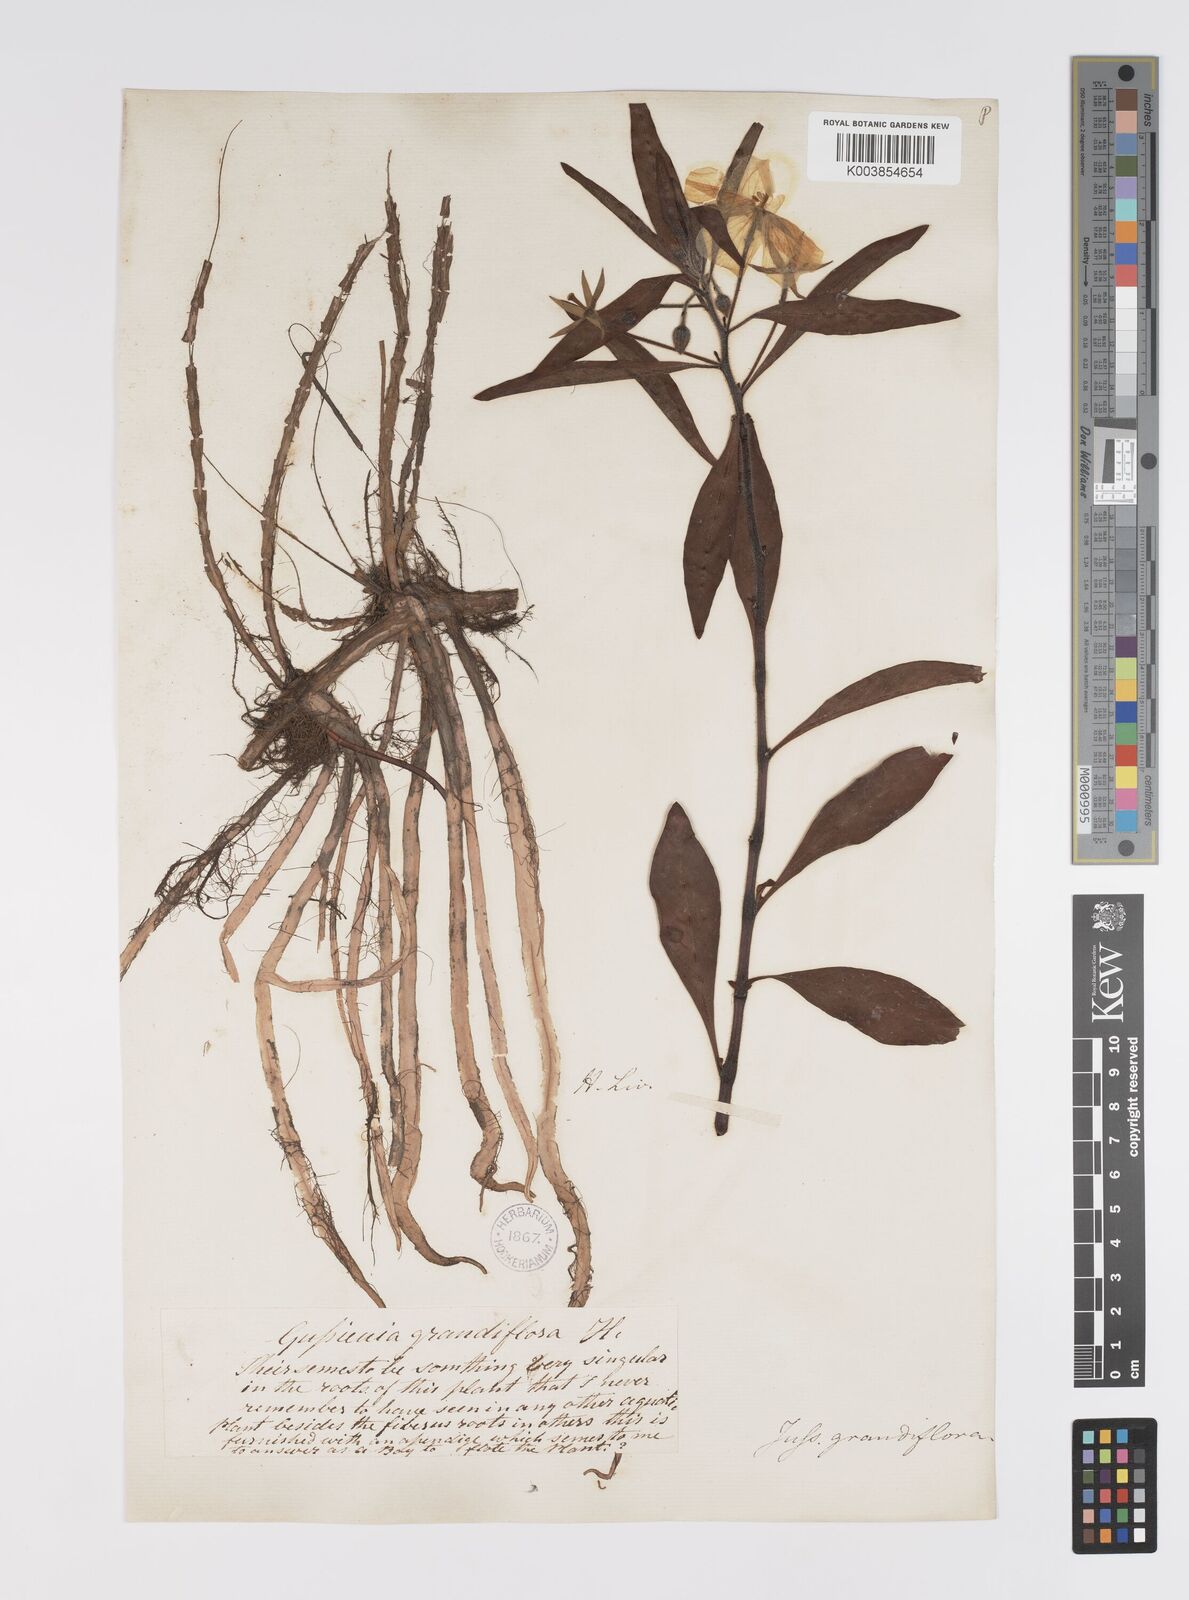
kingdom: Plantae
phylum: Tracheophyta
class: Magnoliopsida
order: Myrtales
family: Onagraceae
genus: Ludwigia
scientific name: Ludwigia
